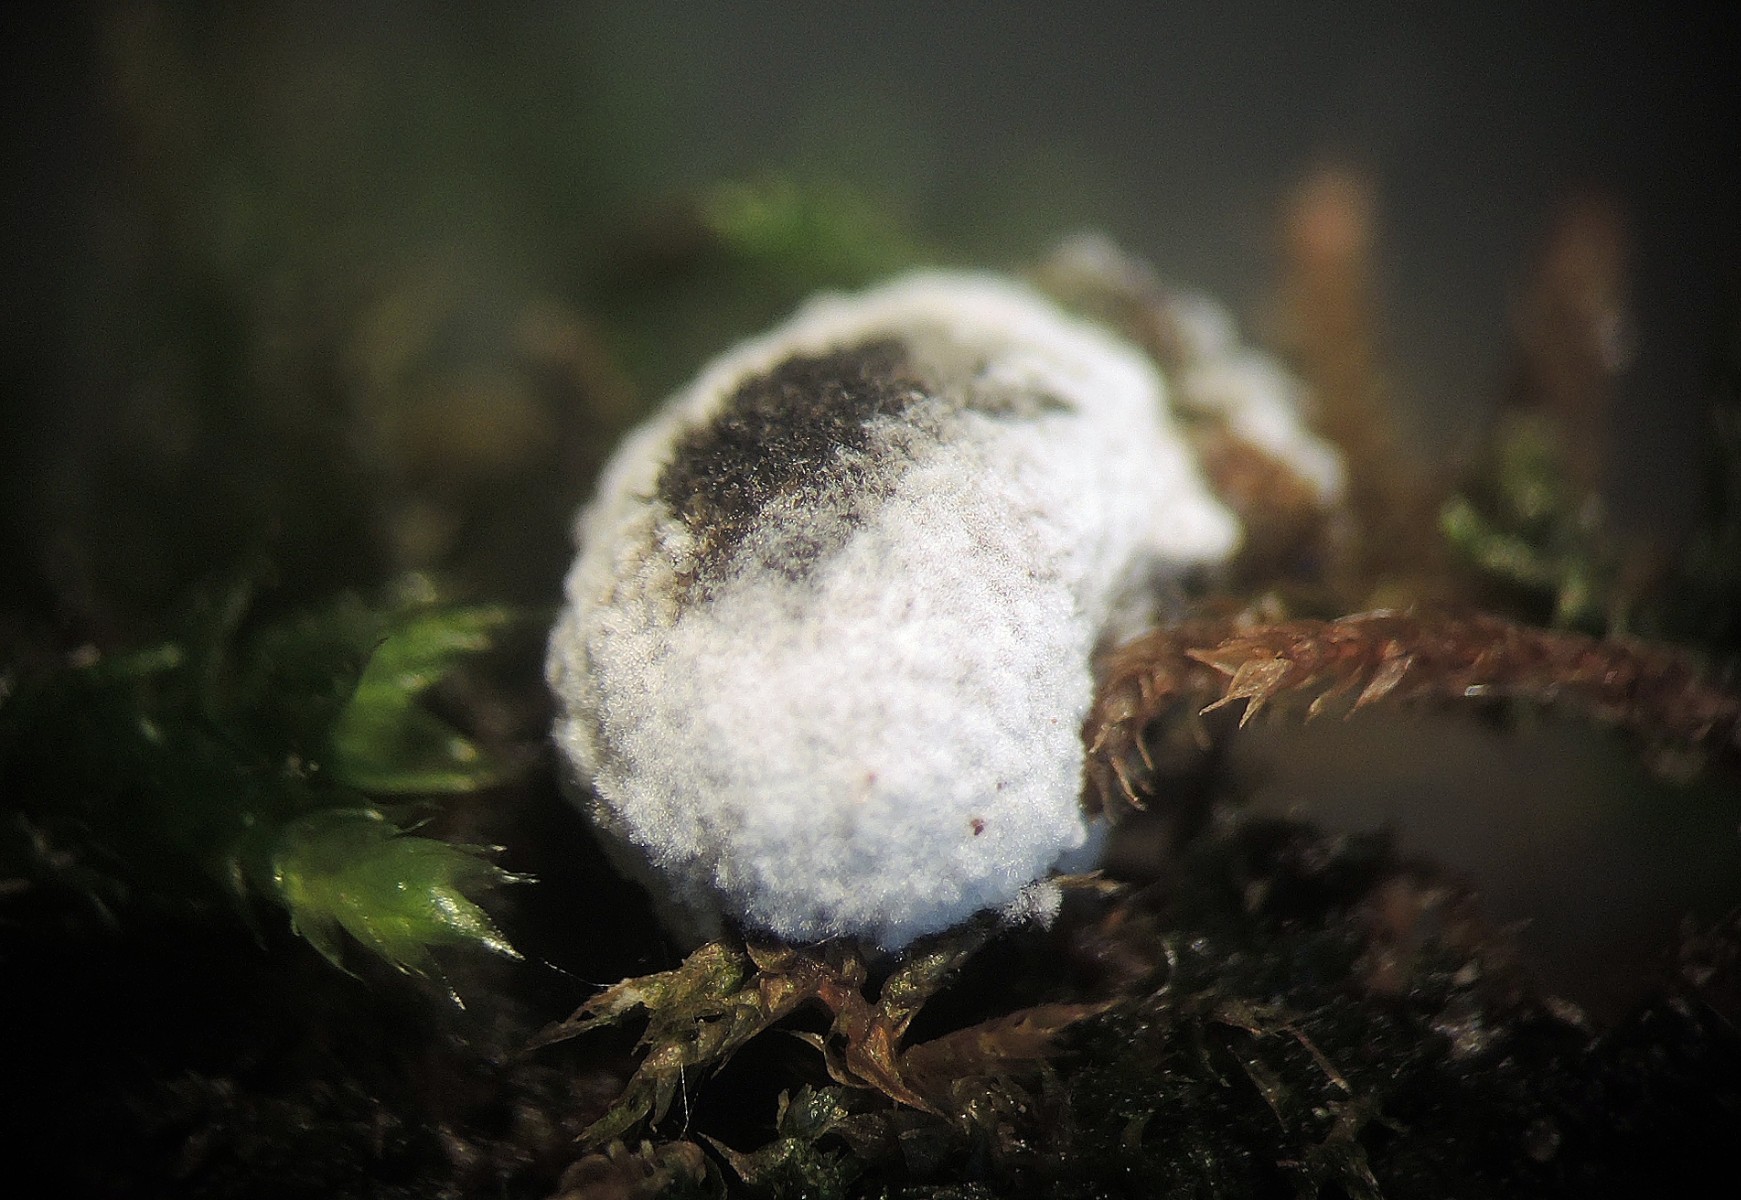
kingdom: Fungi
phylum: Ascomycota
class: Sordariomycetes
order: Hypocreales
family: Bionectriaceae
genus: Nectriopsis
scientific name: Nectriopsis sporangiicola
